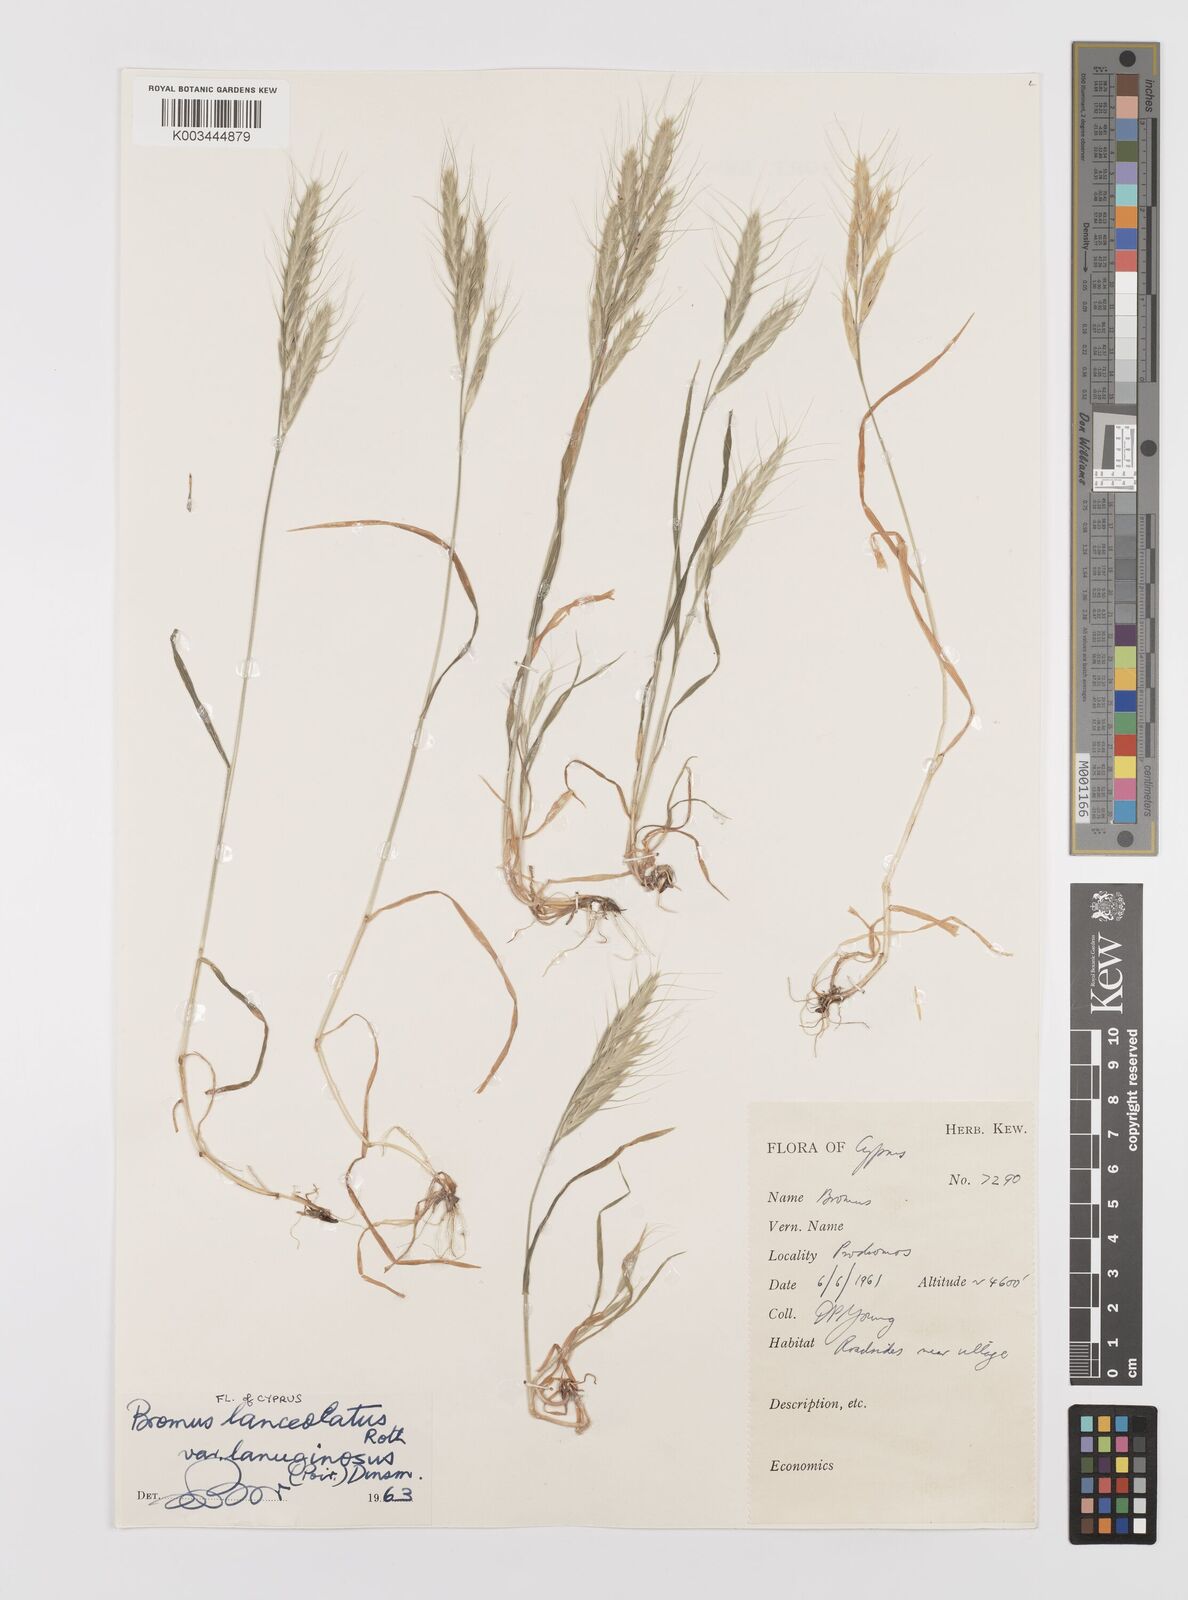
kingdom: Plantae
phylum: Tracheophyta
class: Liliopsida
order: Poales
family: Poaceae
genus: Bromus
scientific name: Bromus lanceolatus
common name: Mediterranean brome
